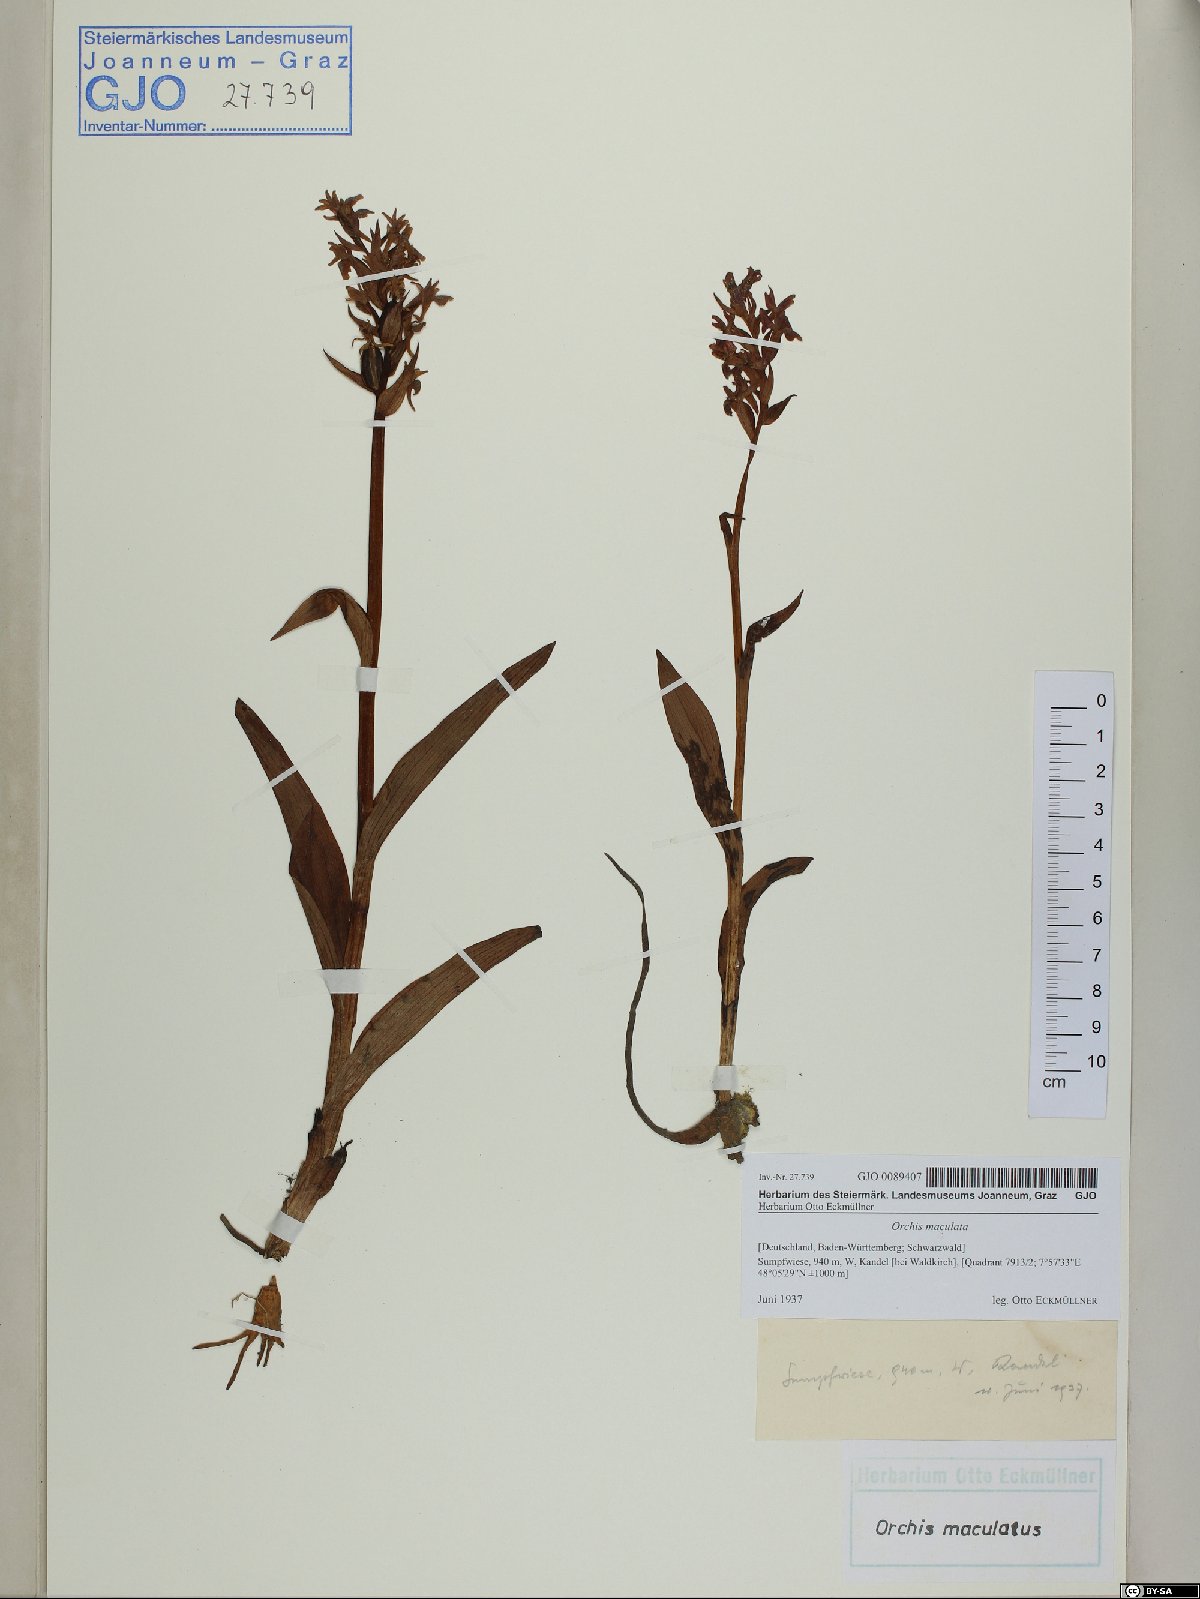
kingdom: Plantae
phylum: Tracheophyta
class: Liliopsida
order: Asparagales
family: Orchidaceae
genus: Dactylorhiza
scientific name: Dactylorhiza maculata
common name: Heath spotted-orchid
